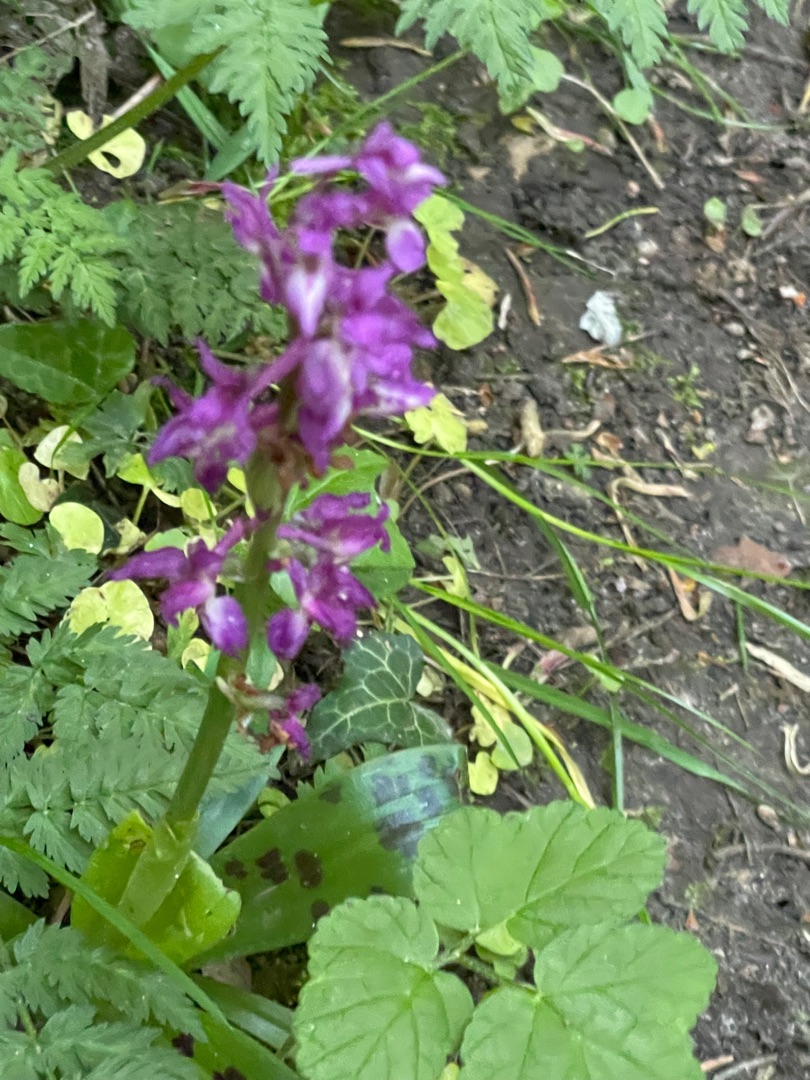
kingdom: Plantae
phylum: Tracheophyta
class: Liliopsida
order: Asparagales
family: Orchidaceae
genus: Orchis
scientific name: Orchis mascula
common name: Tyndakset gøgeurt
